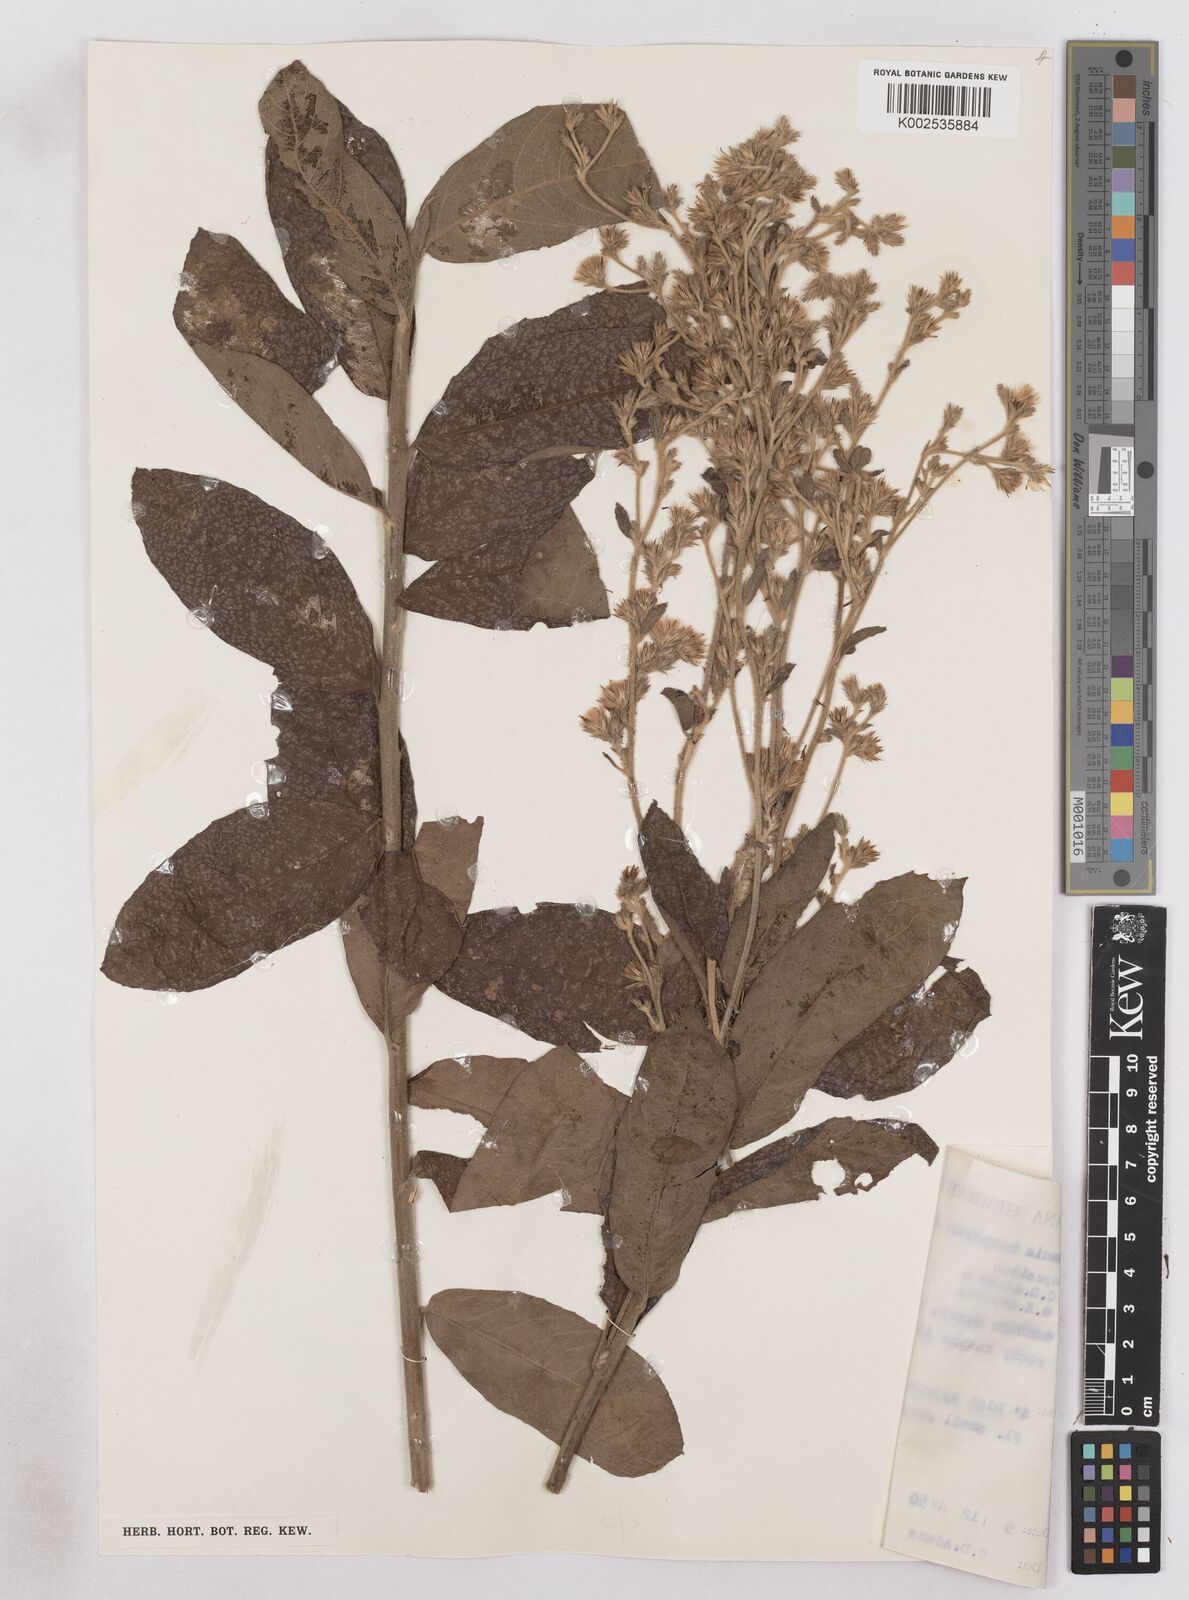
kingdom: Plantae
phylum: Tracheophyta
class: Magnoliopsida
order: Asterales
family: Asteraceae
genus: Vernoniastrum
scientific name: Vernoniastrum camporum
